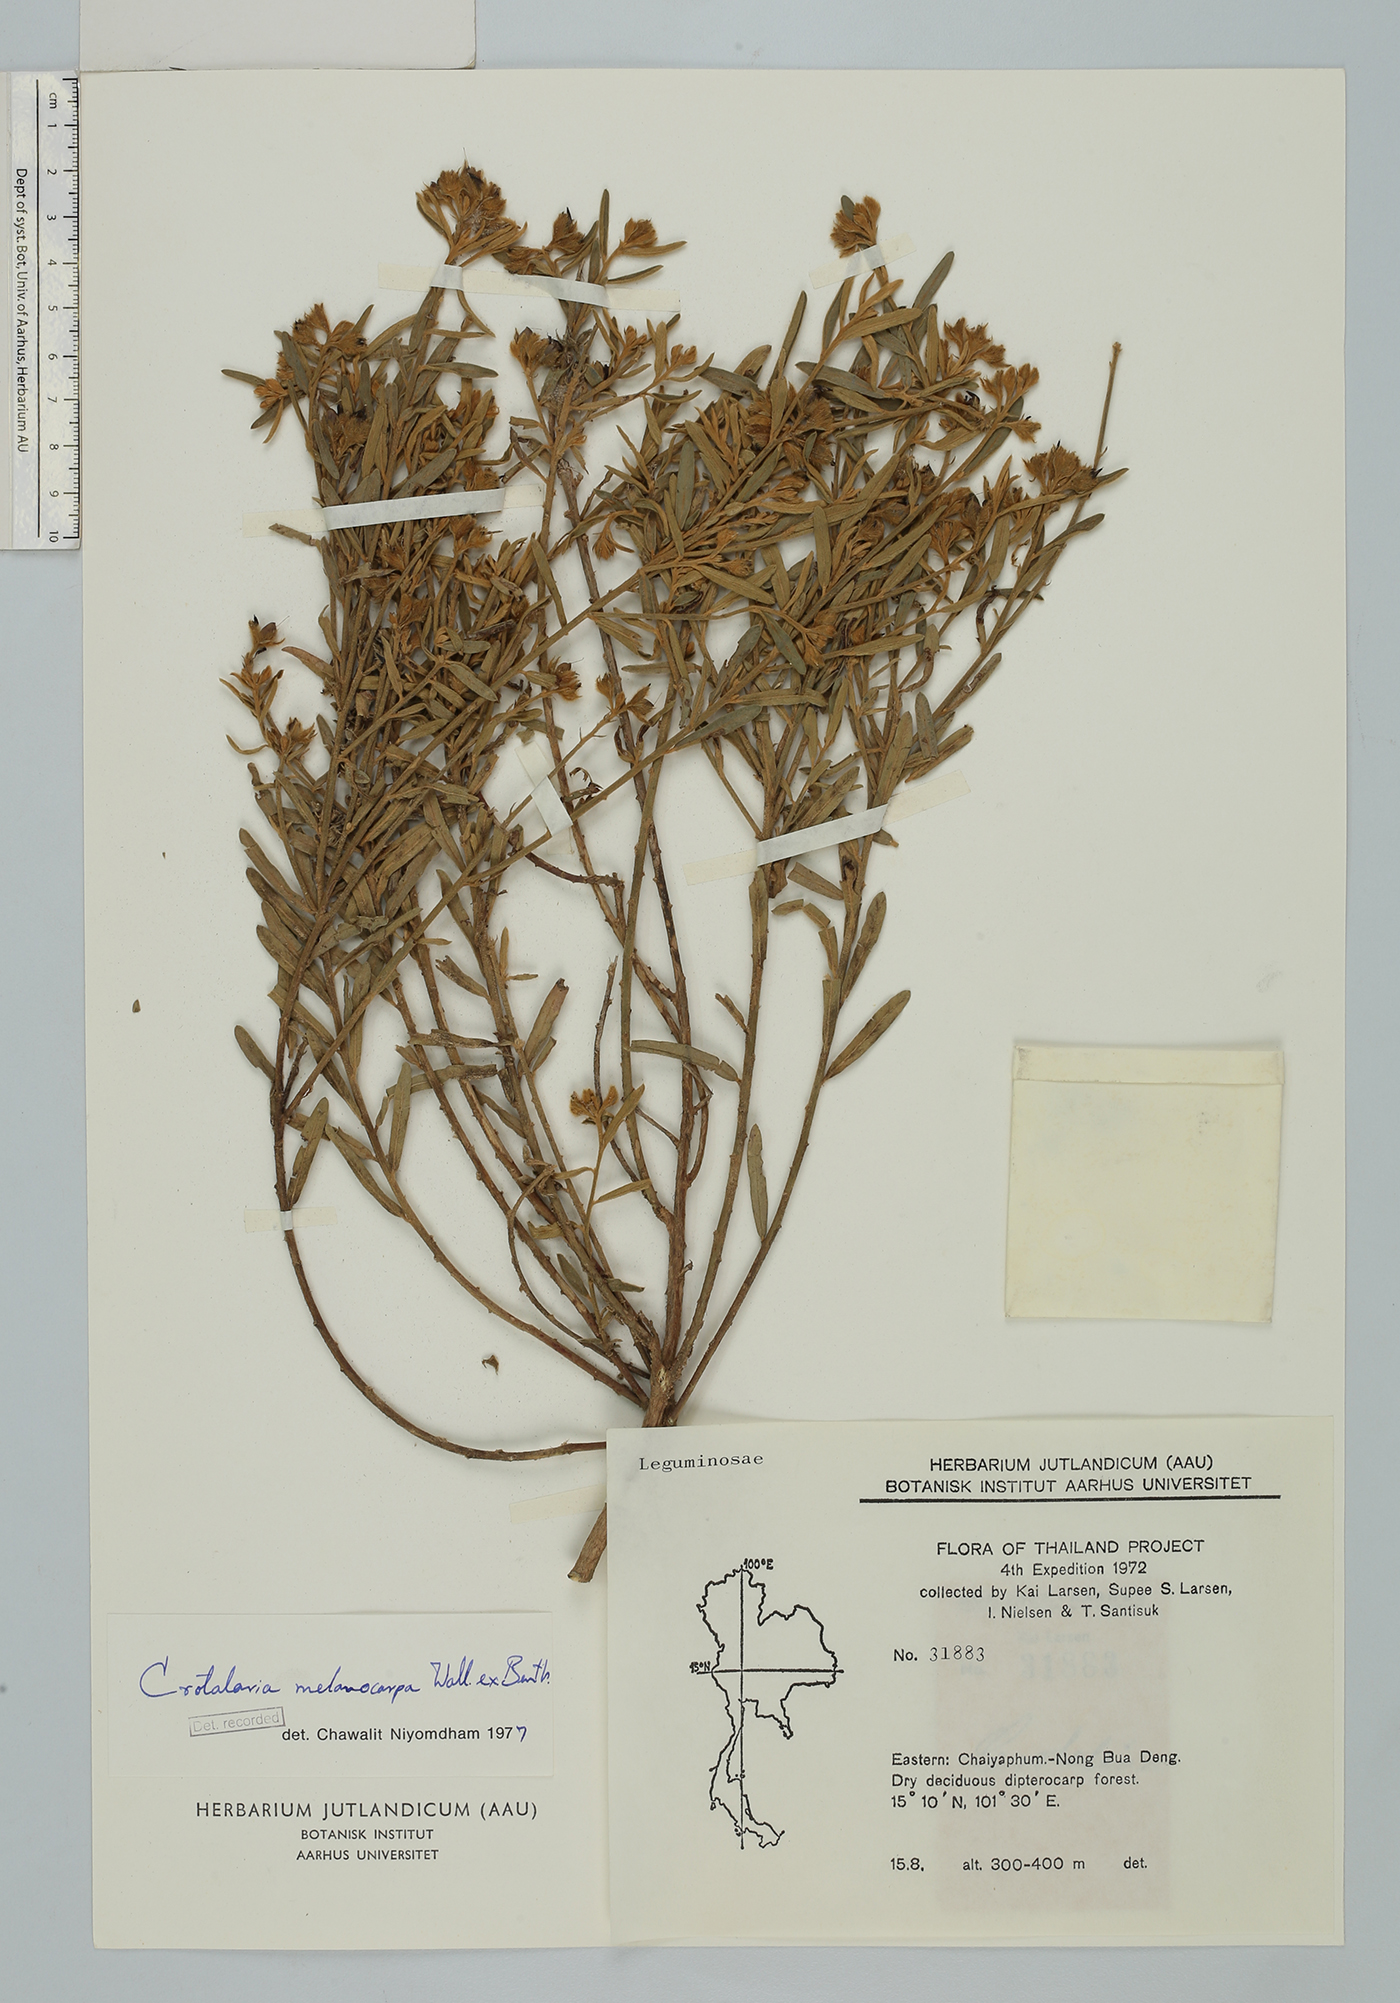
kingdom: Plantae
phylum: Tracheophyta
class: Magnoliopsida
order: Fabales
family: Fabaceae
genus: Crotalaria
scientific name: Crotalaria melanocarpa
